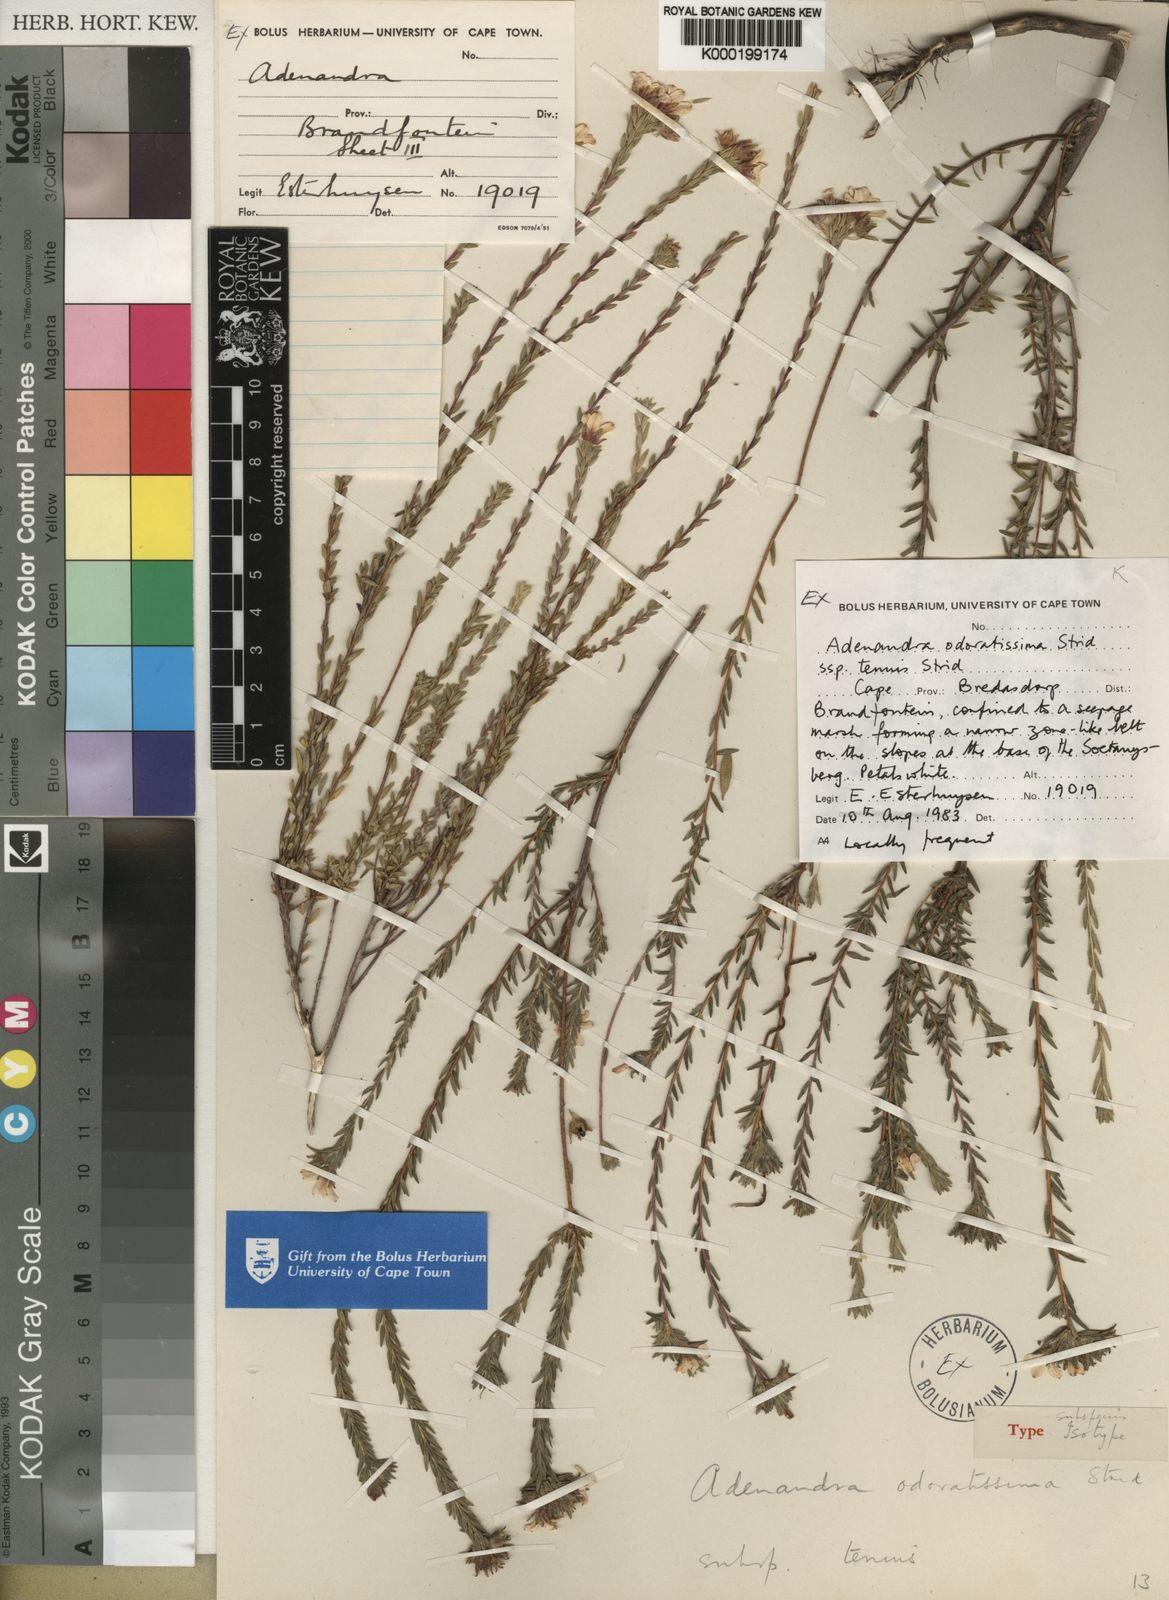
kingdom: Plantae
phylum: Tracheophyta
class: Magnoliopsida
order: Sapindales
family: Rutaceae
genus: Adenandra
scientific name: Adenandra odoratissima
